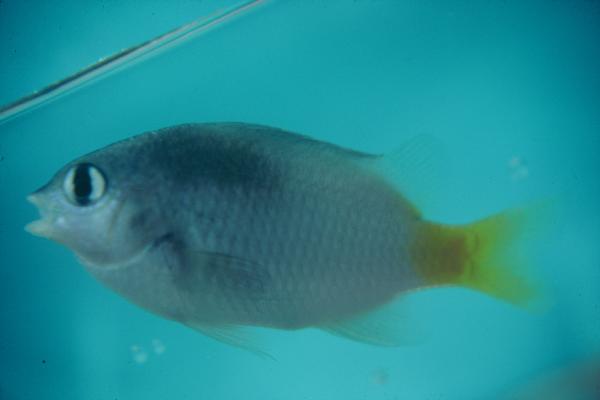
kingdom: Animalia
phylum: Chordata
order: Perciformes
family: Pomacentridae
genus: Plectroglyphidodon
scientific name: Plectroglyphidodon imparipennis
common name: Brighteye damsel
